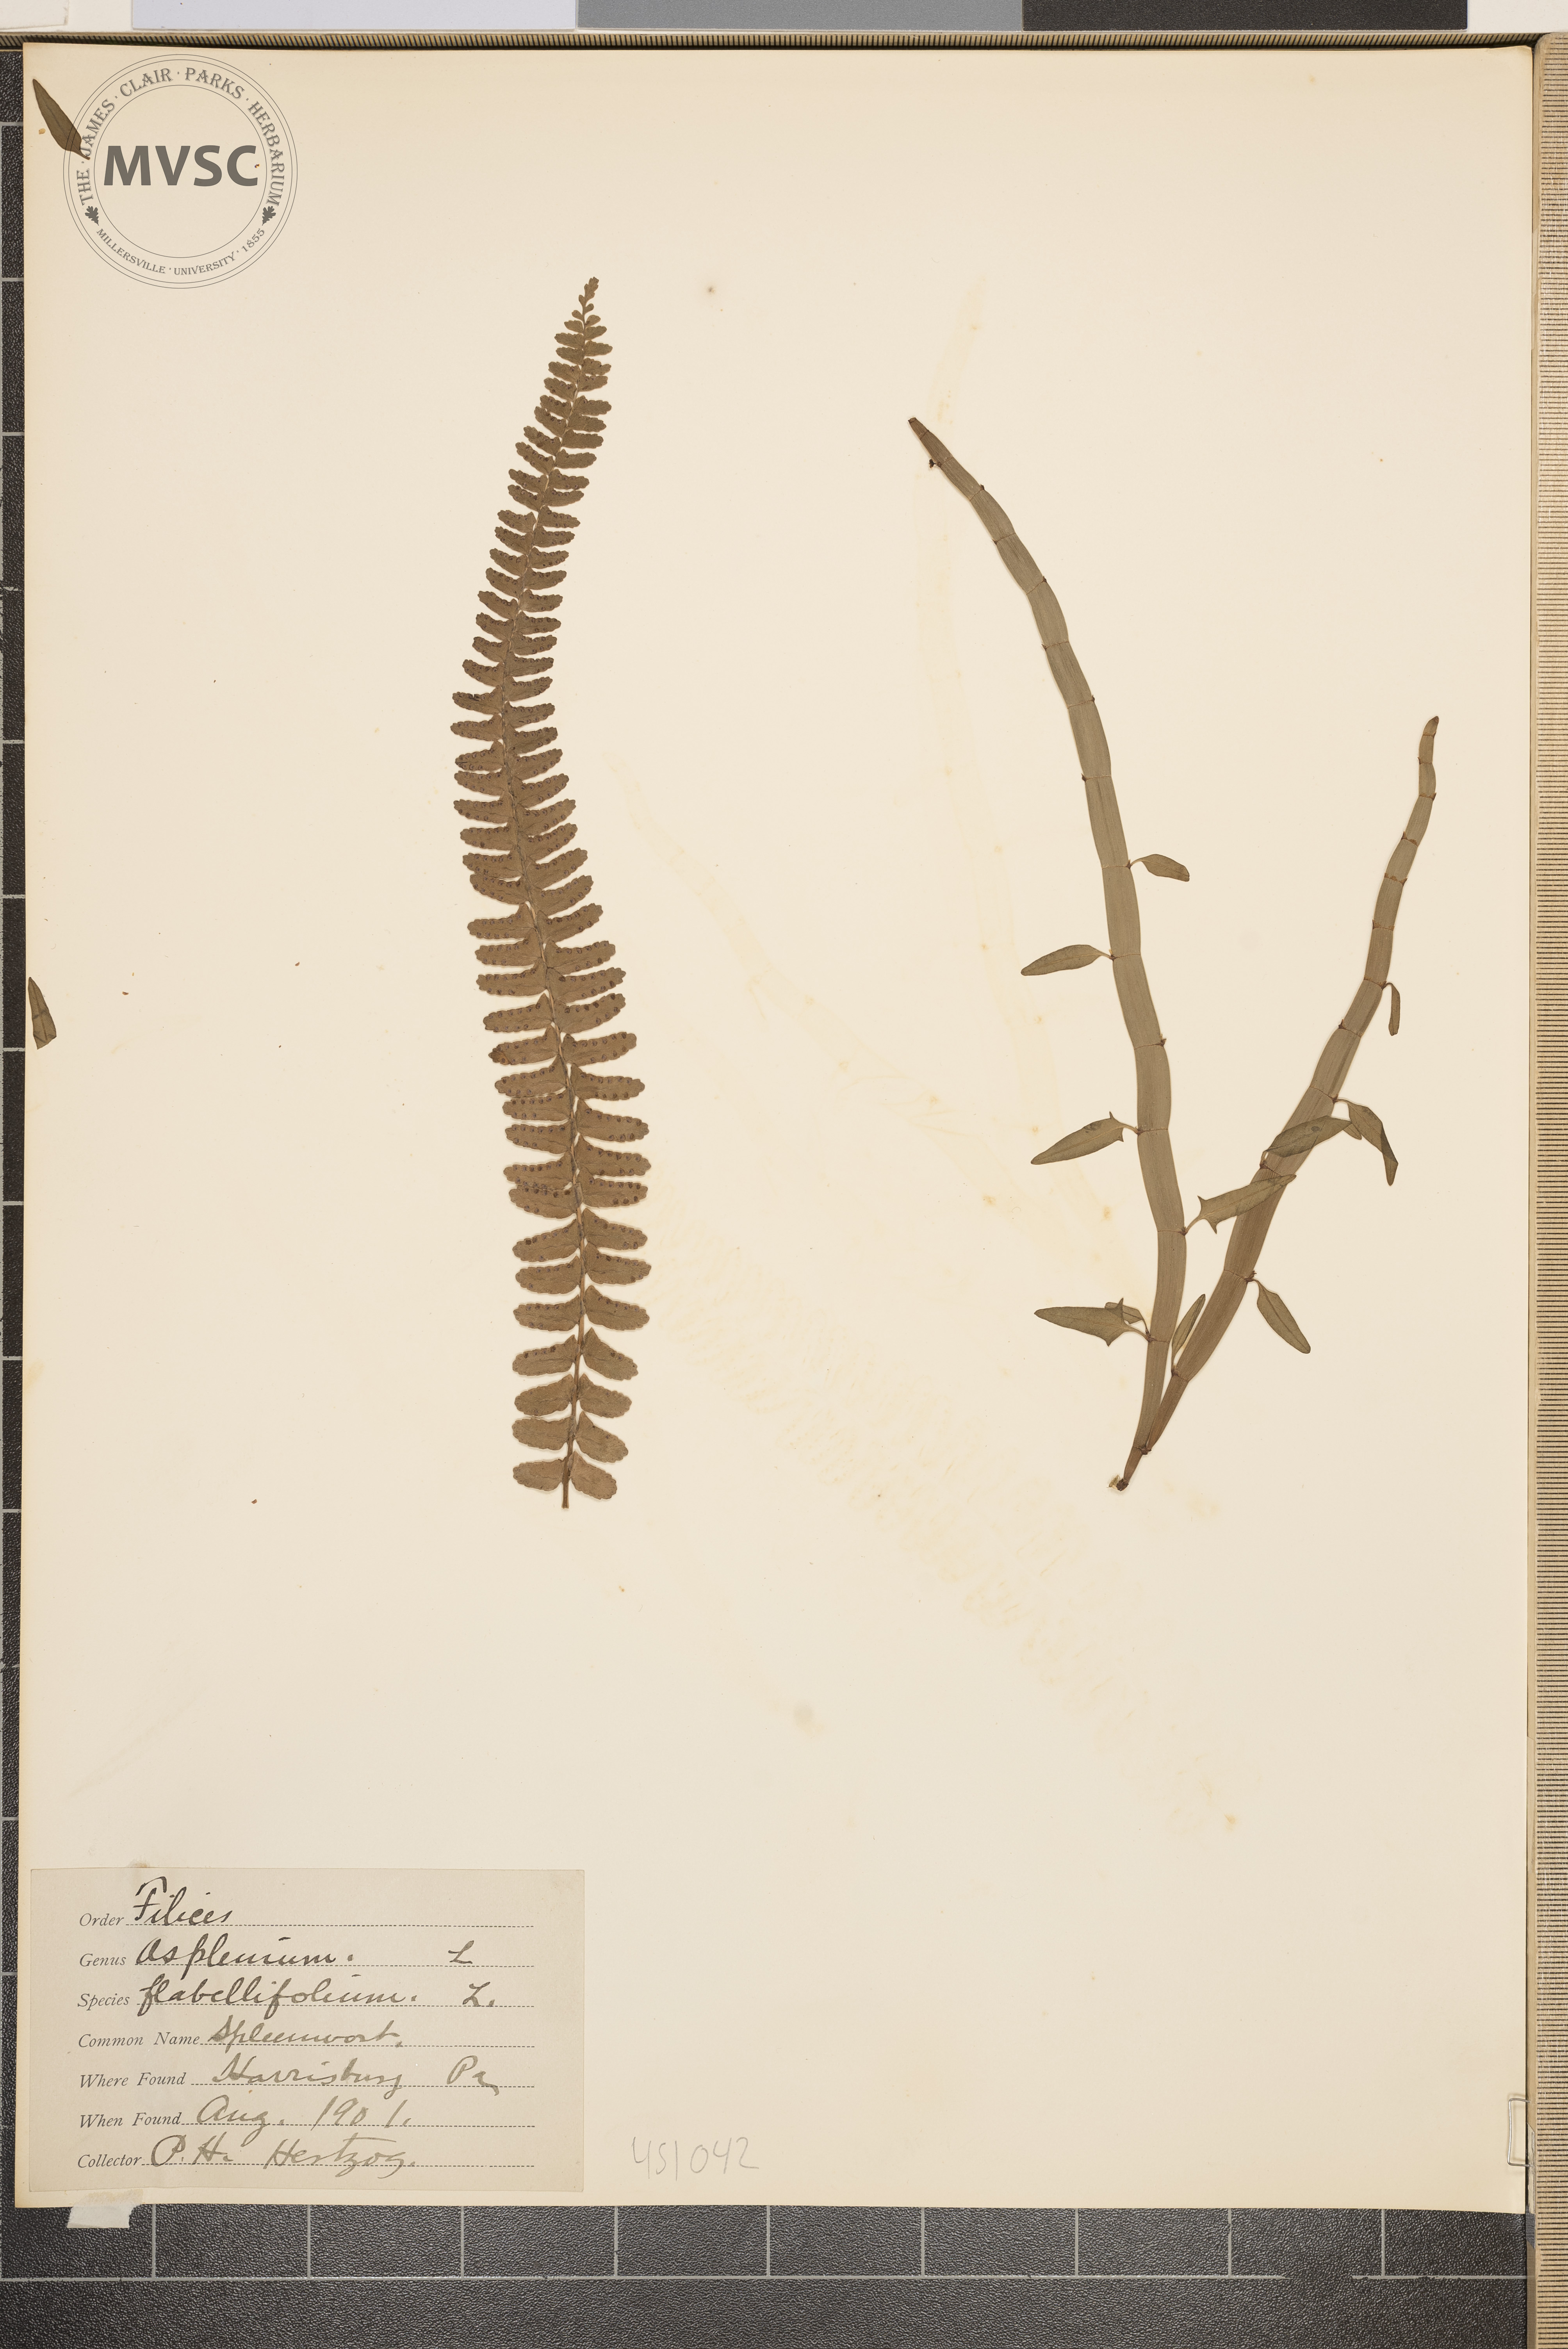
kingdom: Plantae
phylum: Tracheophyta
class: Polypodiopsida
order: Polypodiales
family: Aspleniaceae
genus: Asplenium
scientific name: Asplenium
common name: Spleenwort
